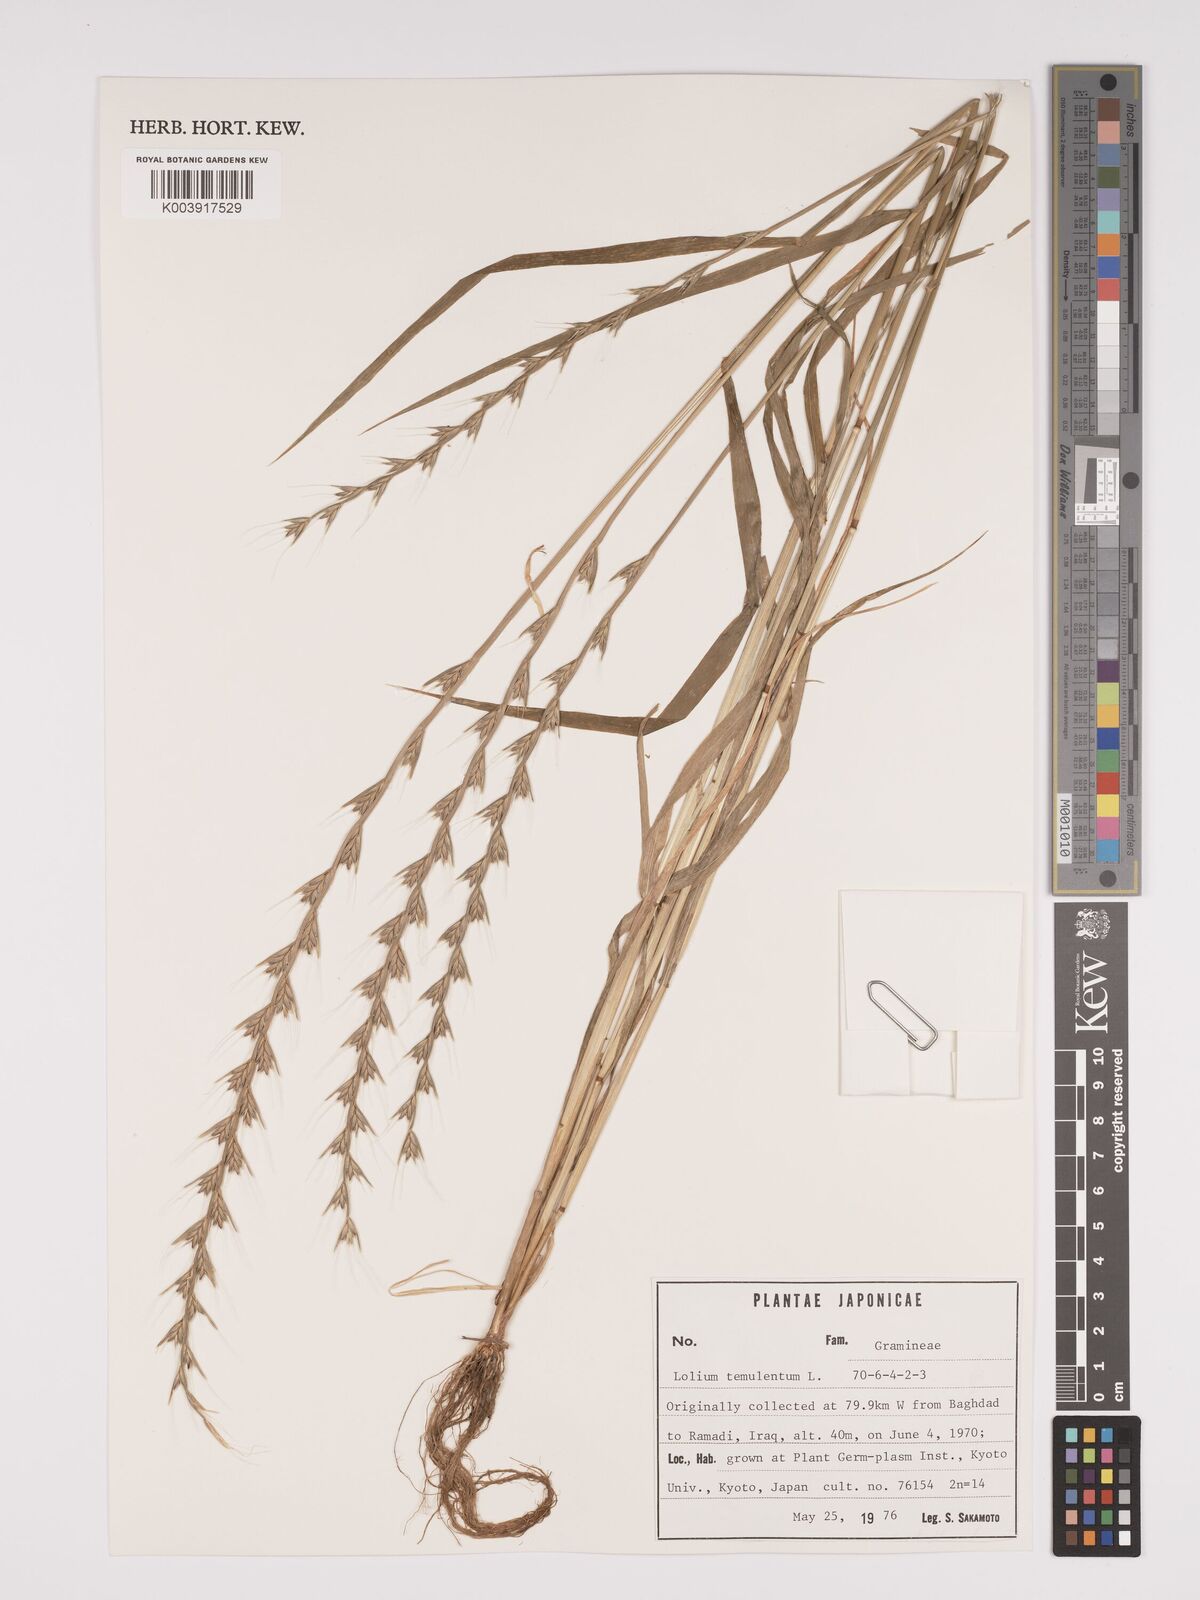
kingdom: Plantae
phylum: Tracheophyta
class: Liliopsida
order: Poales
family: Poaceae
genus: Lolium
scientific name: Lolium temulentum
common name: Darnel
